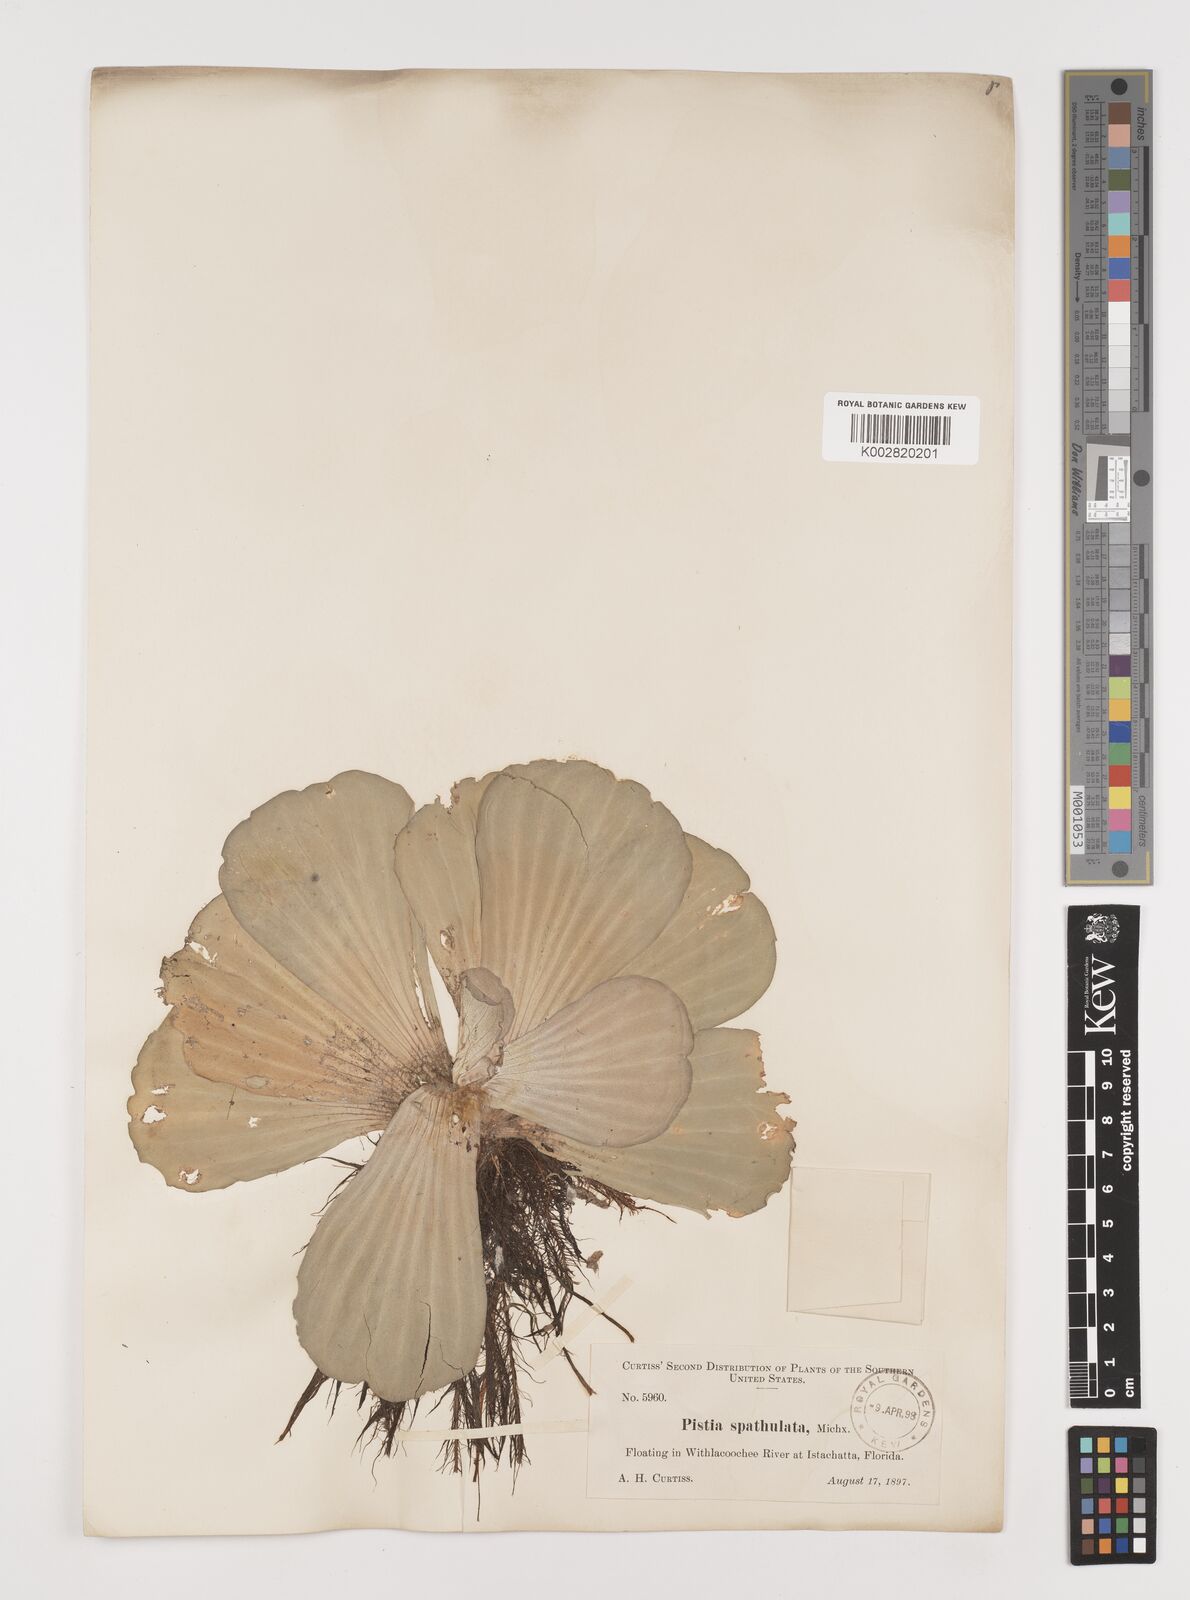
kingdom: Plantae
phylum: Tracheophyta
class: Liliopsida
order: Alismatales
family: Araceae
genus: Pistia
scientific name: Pistia stratiotes
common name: Water lettuce
